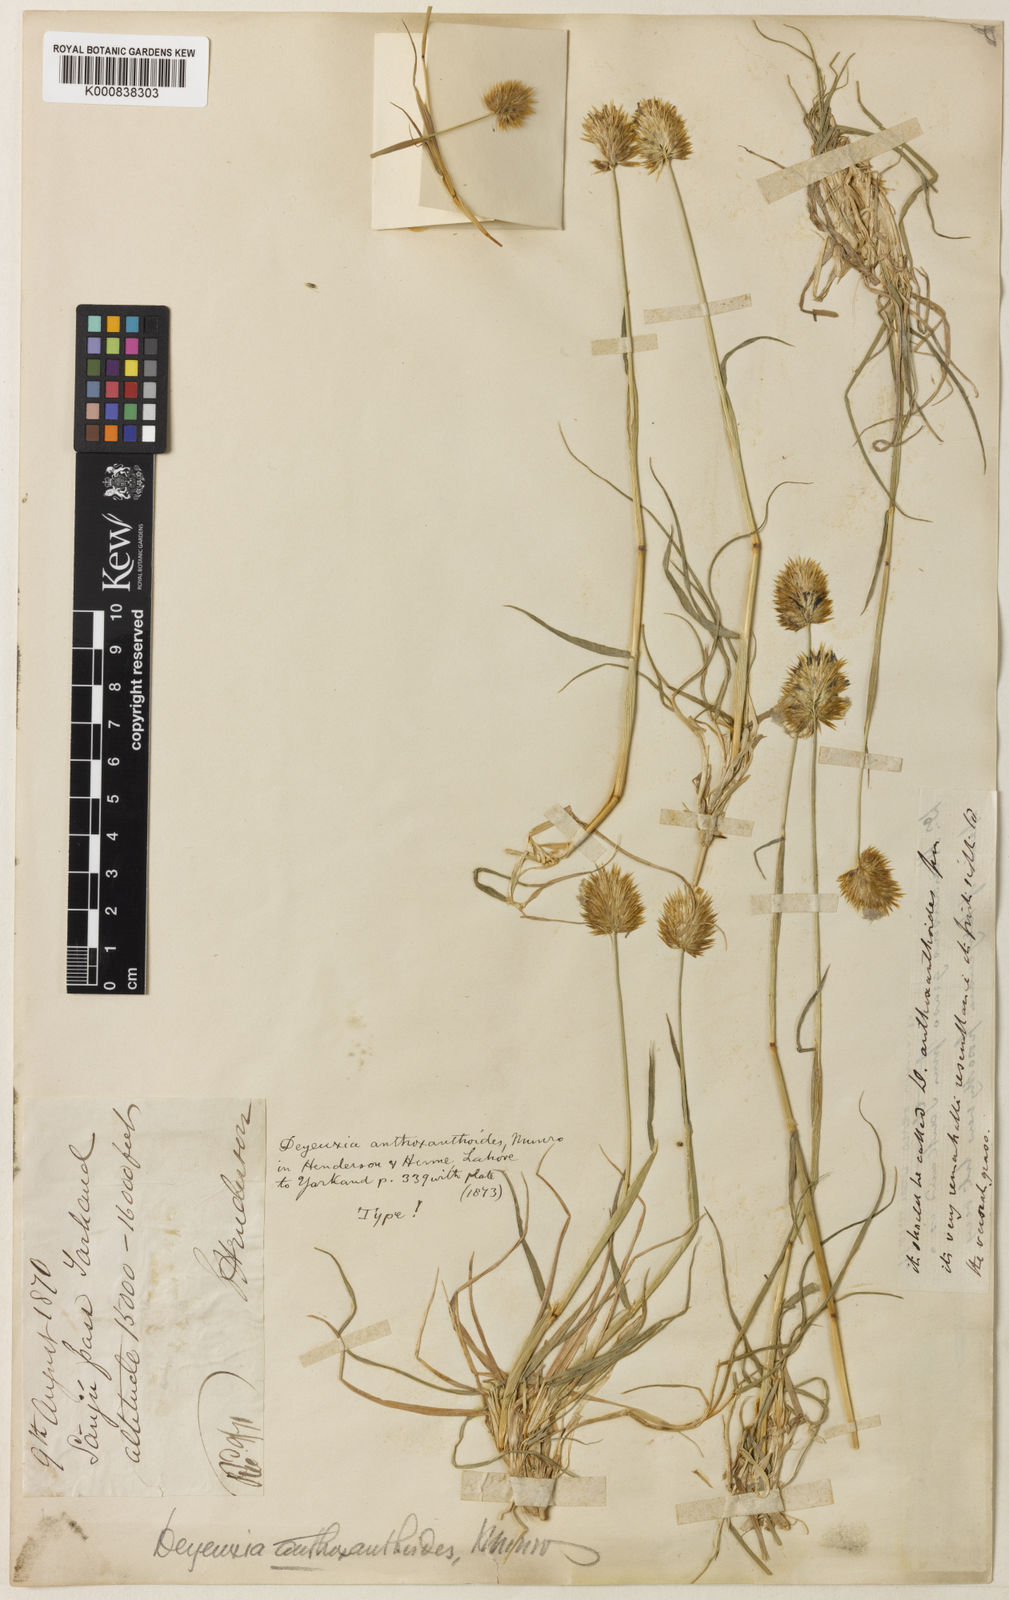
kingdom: Plantae
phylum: Tracheophyta
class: Liliopsida
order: Poales
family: Poaceae
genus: Calamagrostis
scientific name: Calamagrostis anthoxanthoides
